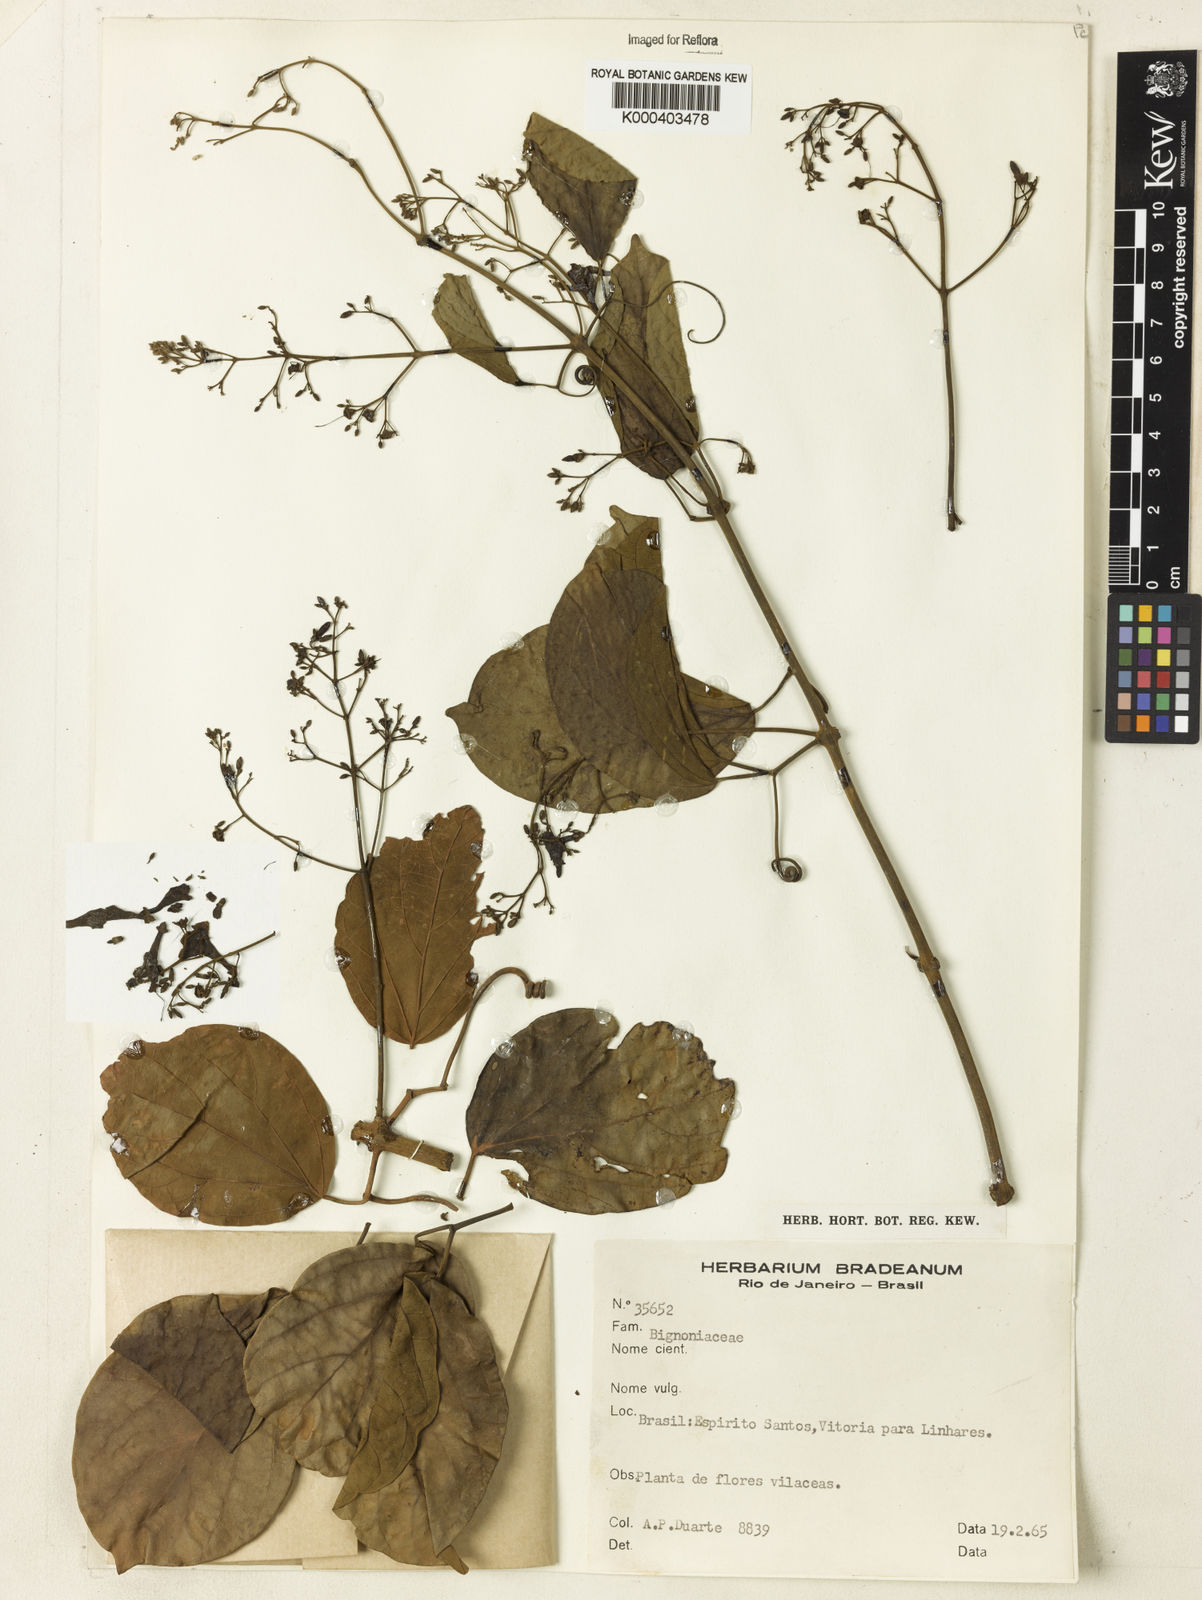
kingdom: Plantae
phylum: Tracheophyta
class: Magnoliopsida
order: Rosales
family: Rhamnaceae
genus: Arrabidaea
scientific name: Arrabidaea
